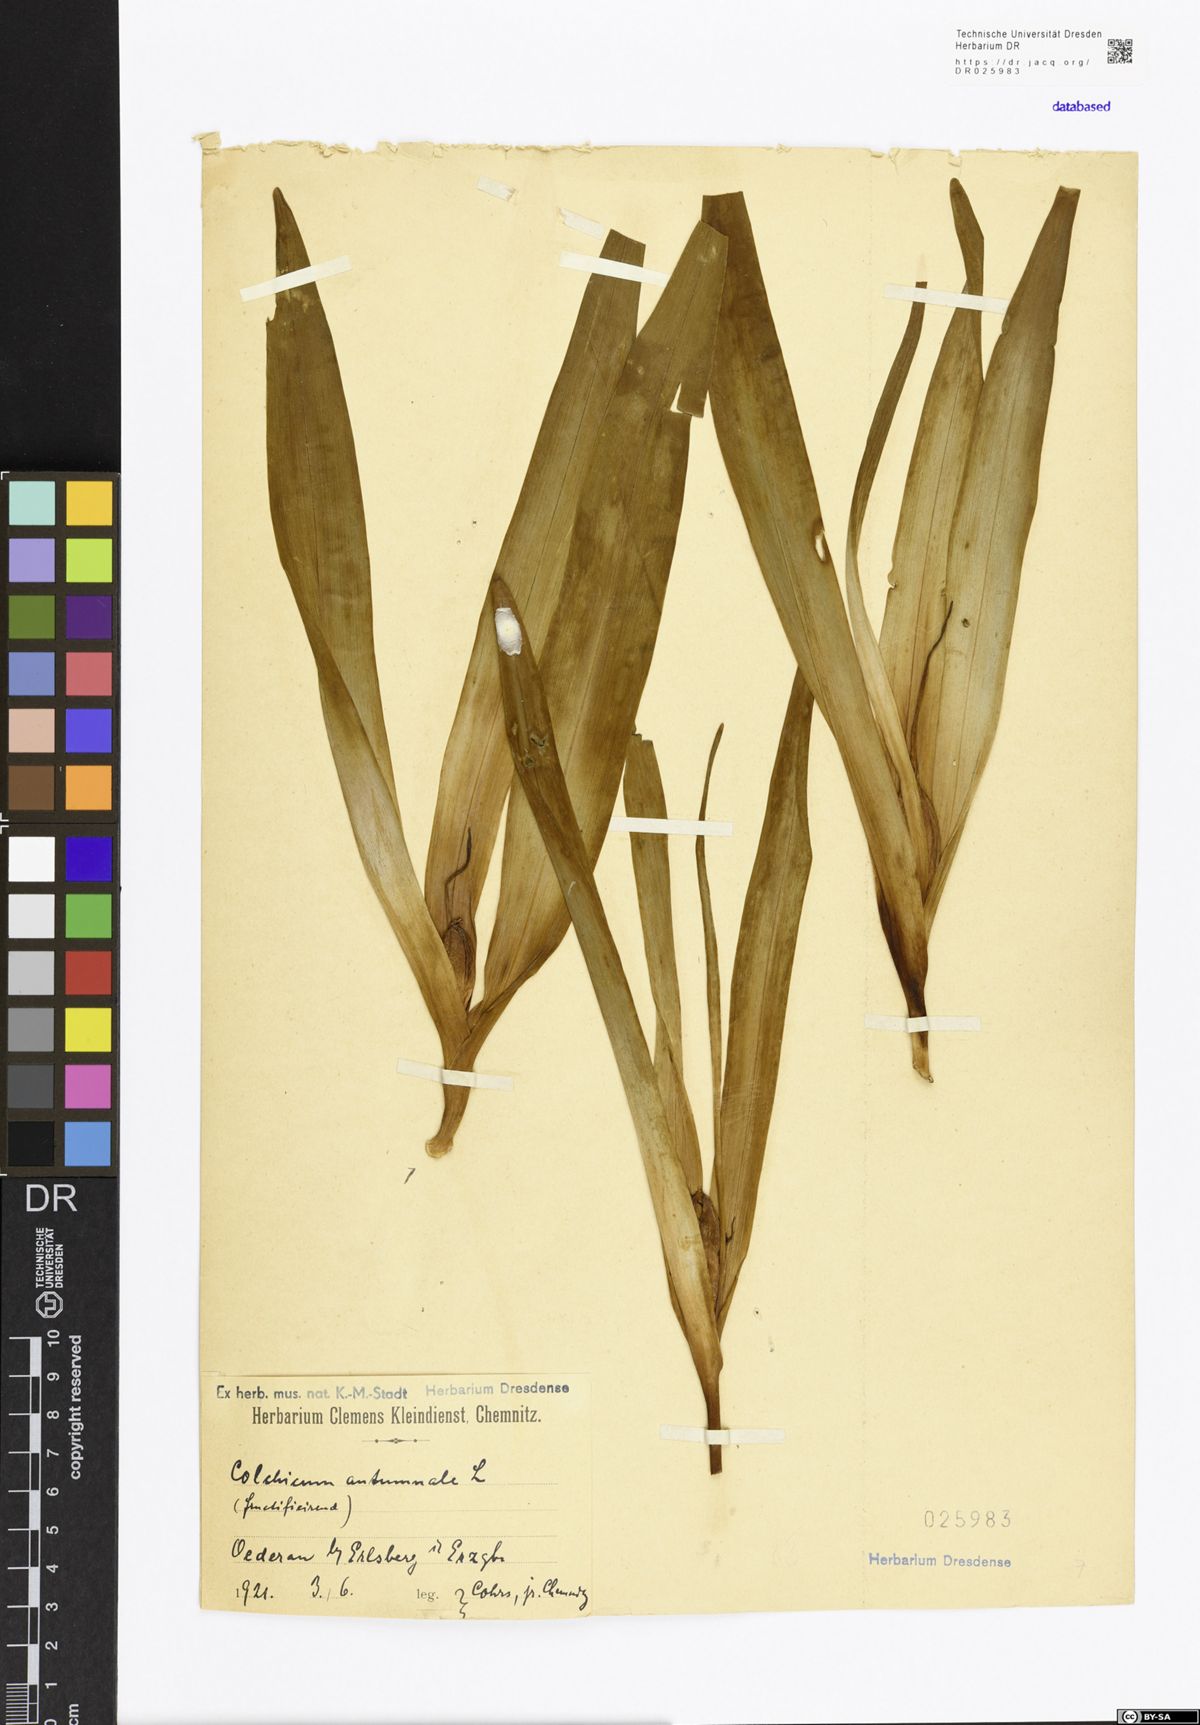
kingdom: Plantae
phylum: Tracheophyta
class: Liliopsida
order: Liliales
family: Colchicaceae
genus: Colchicum
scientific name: Colchicum autumnale
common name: Autumn crocus
